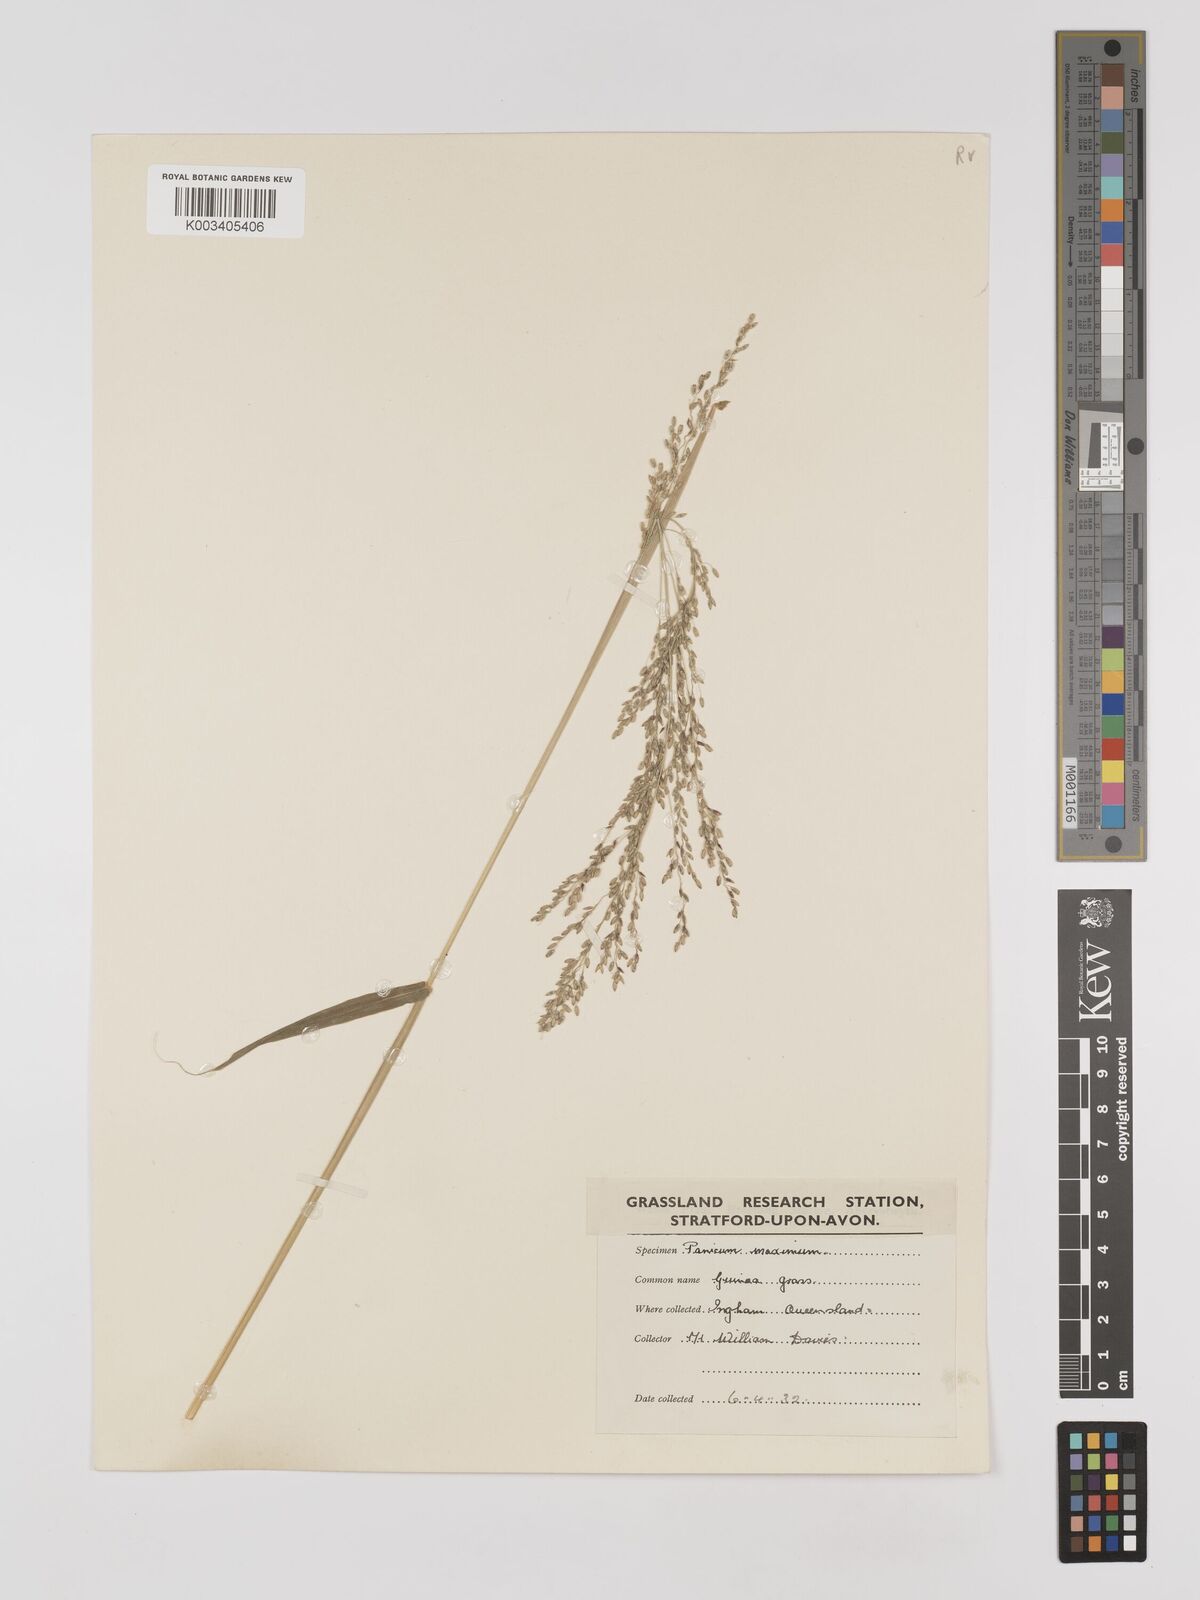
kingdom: Plantae
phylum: Tracheophyta
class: Liliopsida
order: Poales
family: Poaceae
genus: Megathyrsus
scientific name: Megathyrsus maximus
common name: Guineagrass
